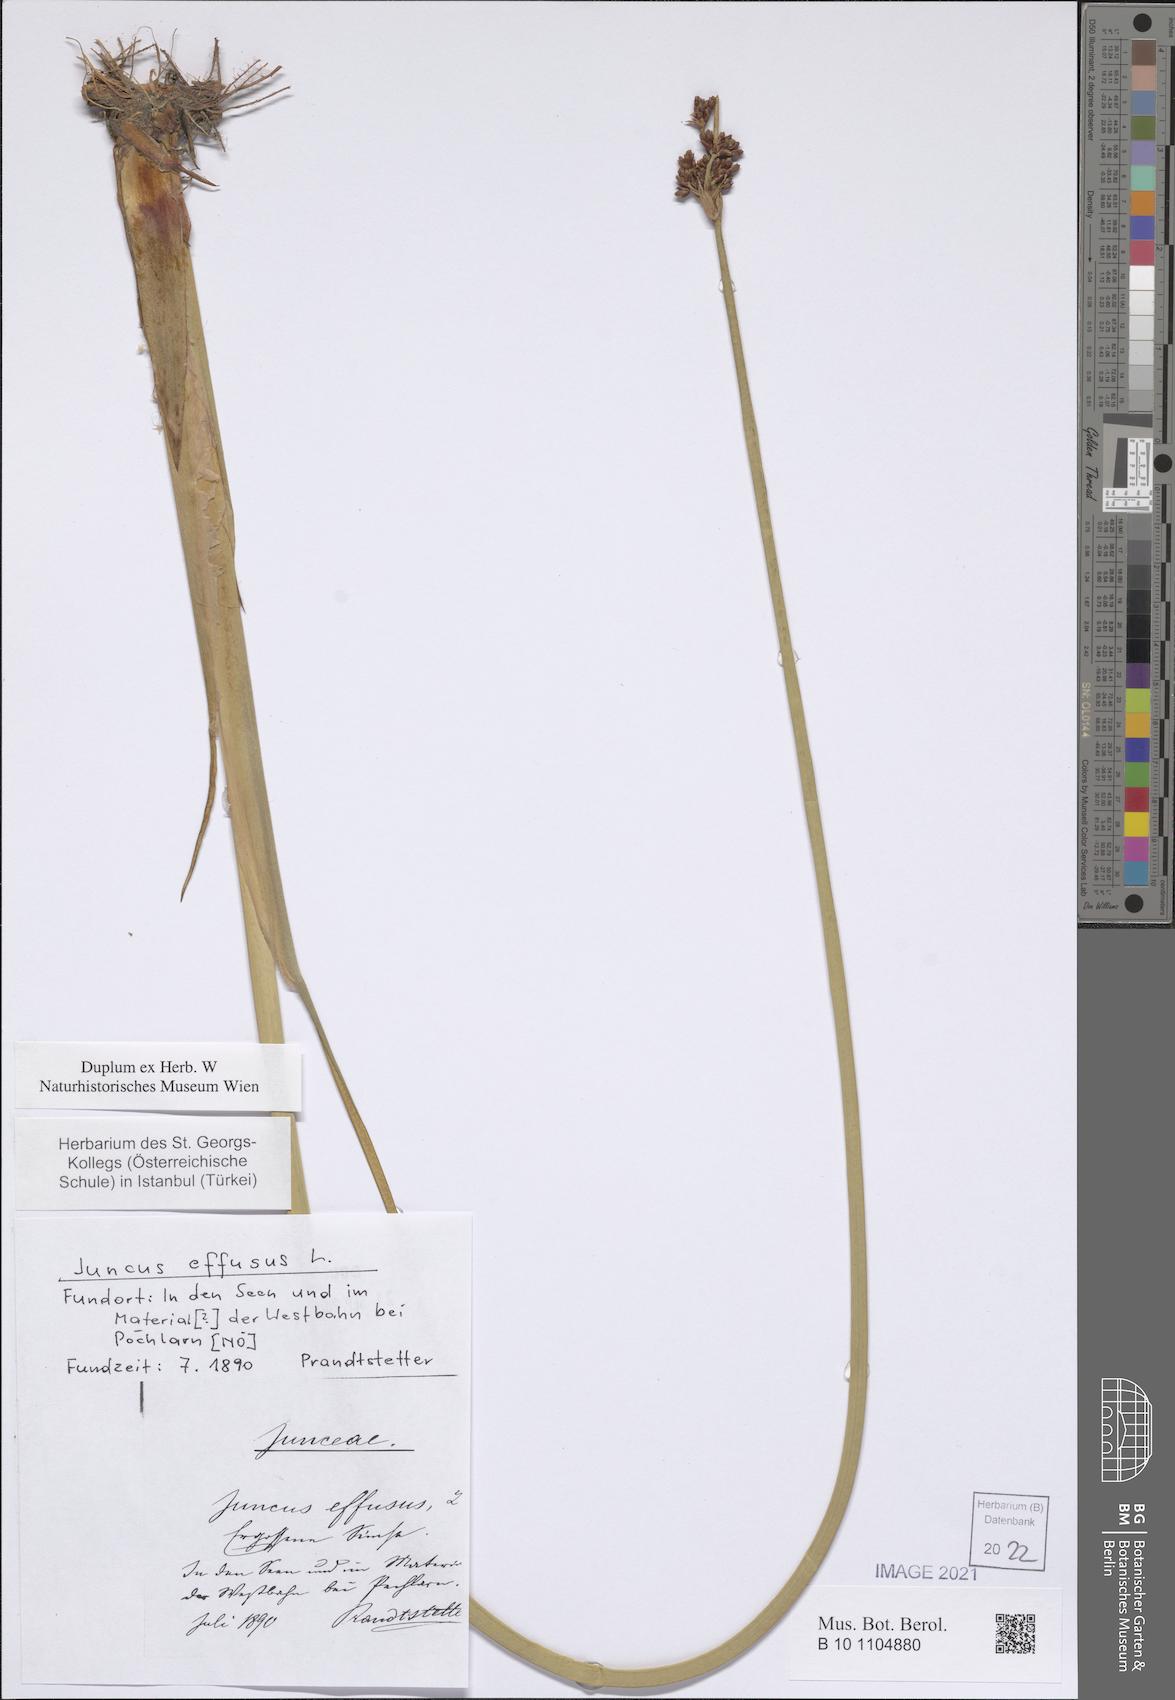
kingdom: Plantae
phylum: Tracheophyta
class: Liliopsida
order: Poales
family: Juncaceae
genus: Juncus
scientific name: Juncus effusus
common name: Soft rush
